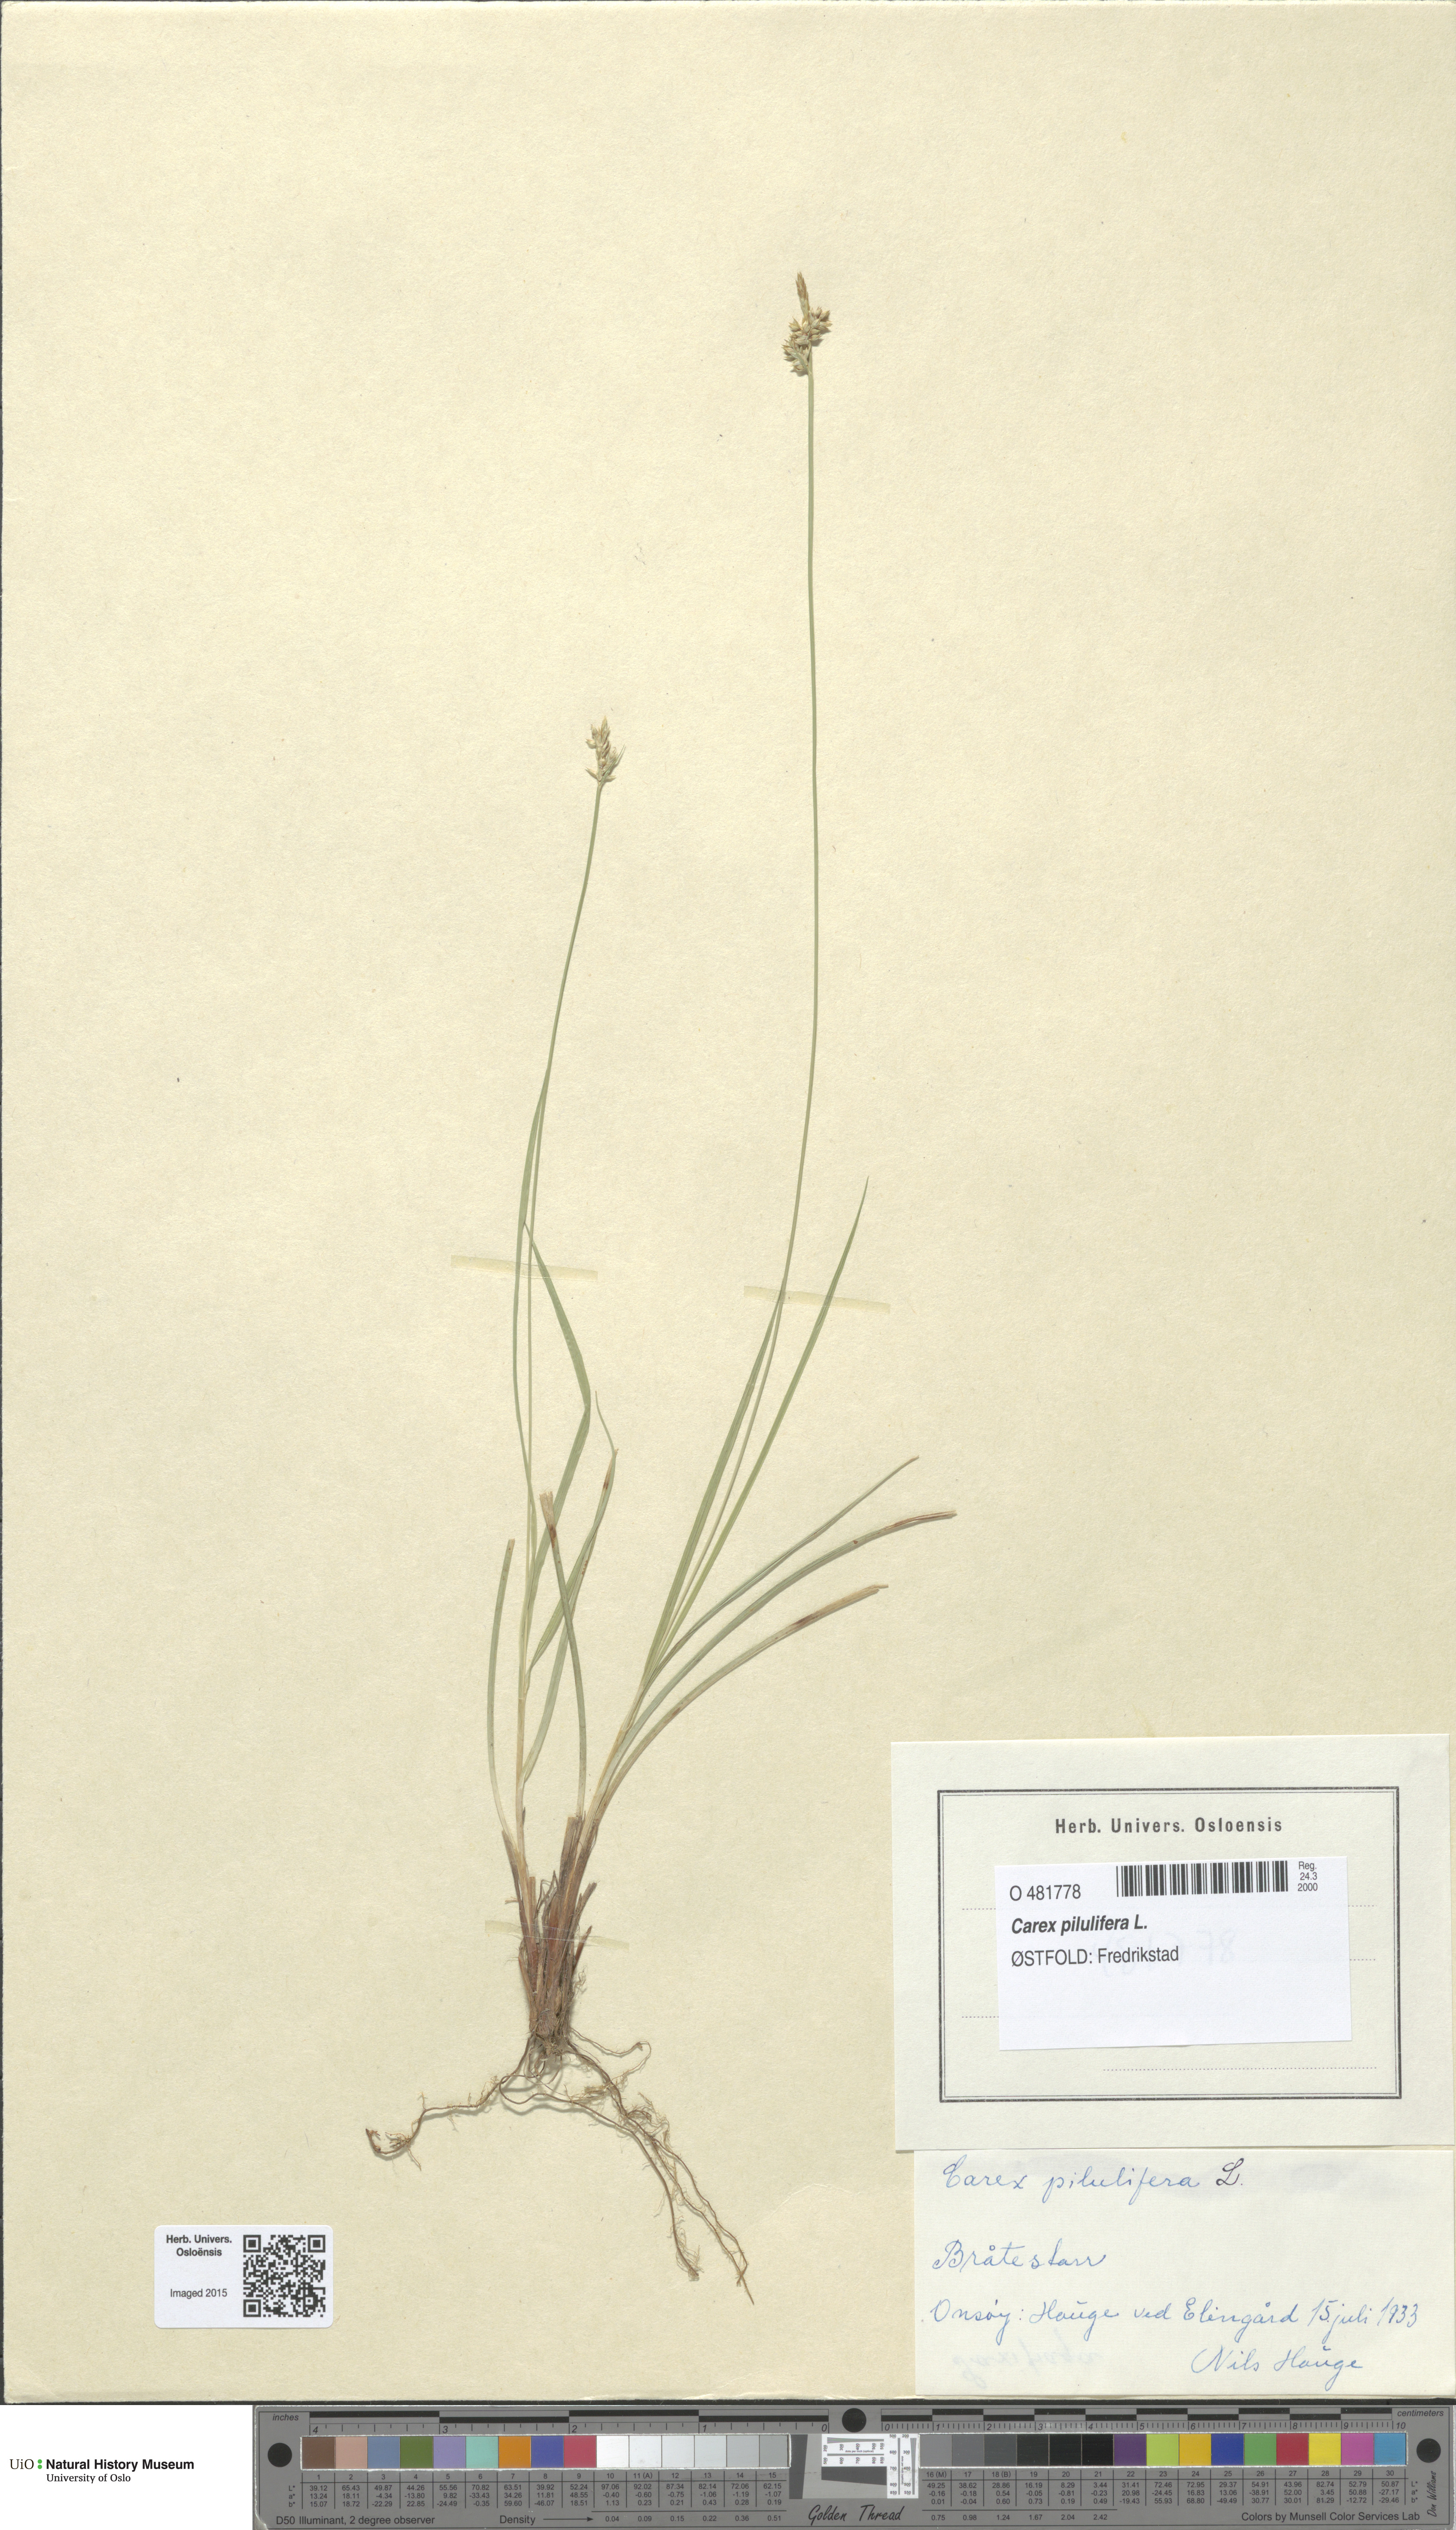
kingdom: Plantae
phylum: Tracheophyta
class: Liliopsida
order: Poales
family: Cyperaceae
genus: Carex
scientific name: Carex pilulifera
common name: Pill sedge
